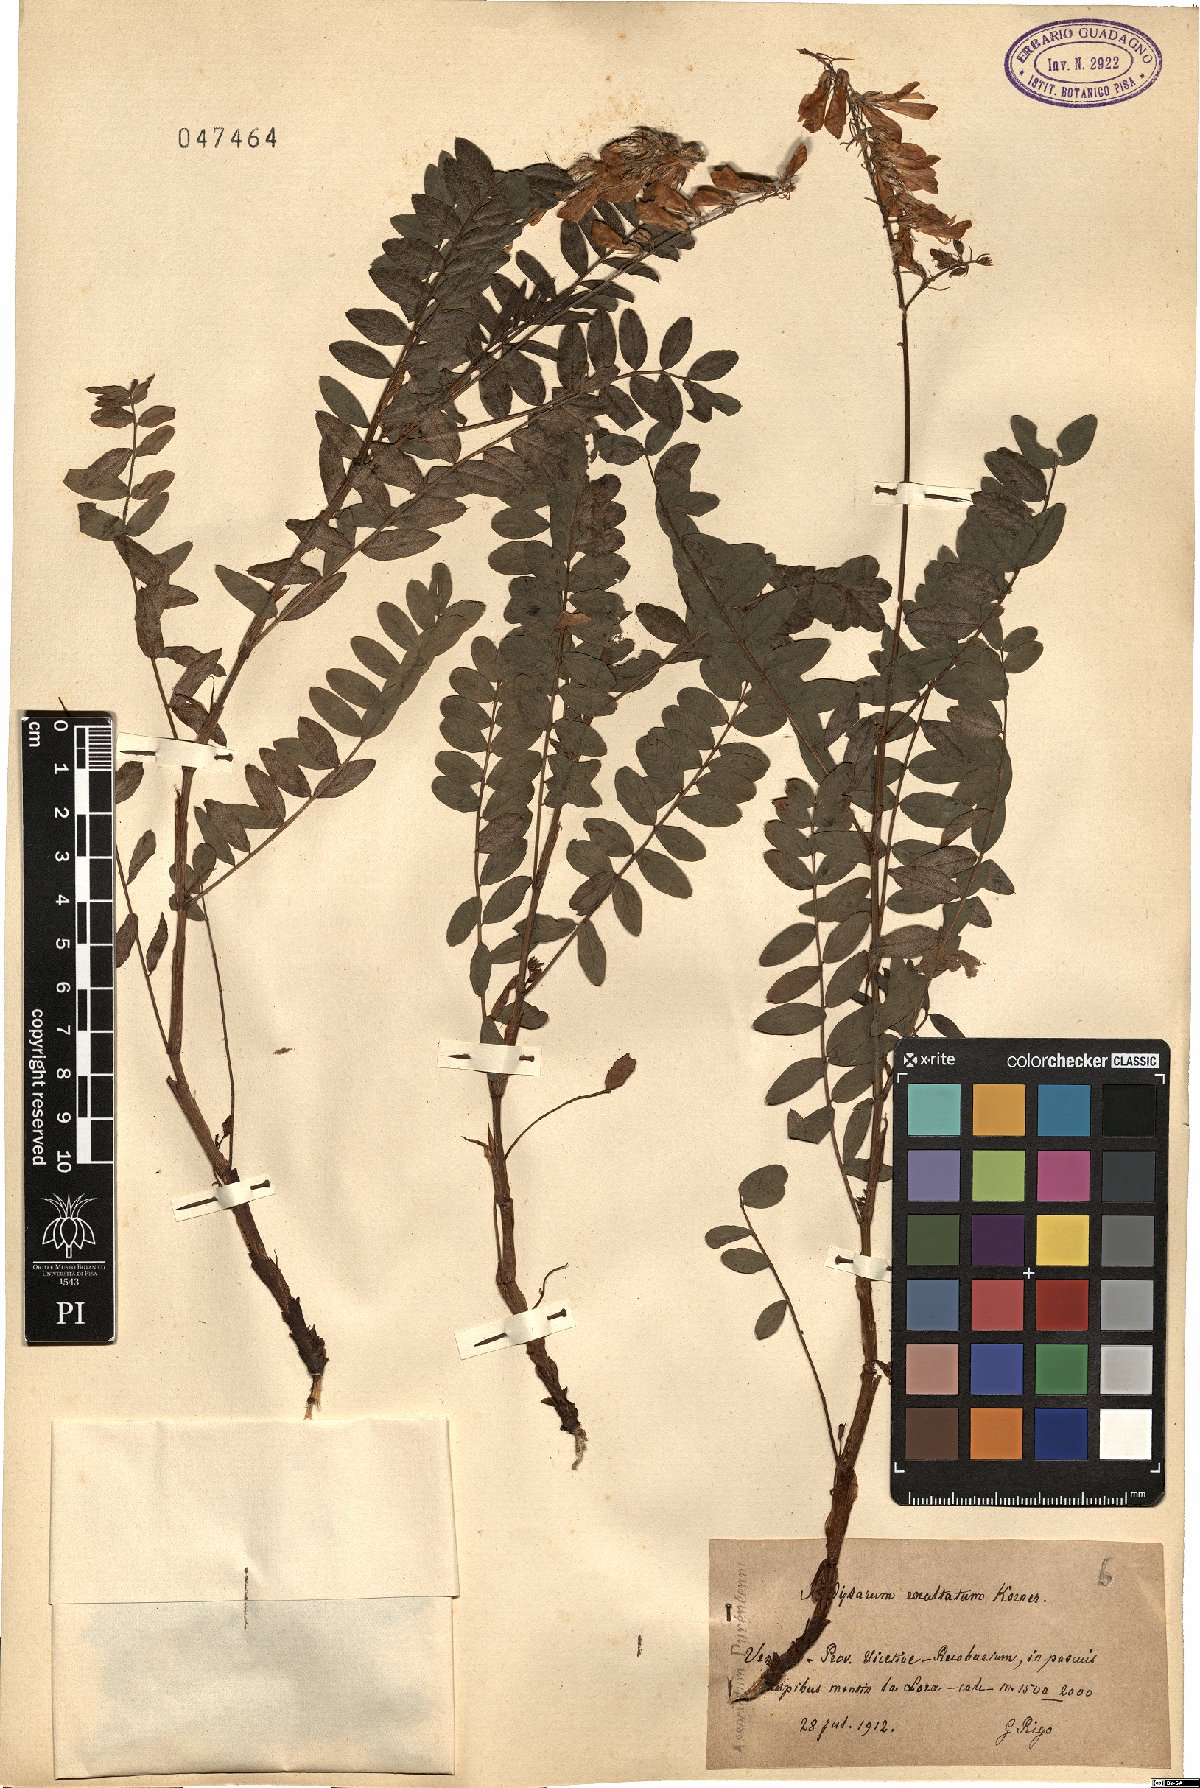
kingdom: Plantae
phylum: Tracheophyta
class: Magnoliopsida
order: Fabales
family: Fabaceae
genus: Hedysarum
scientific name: Hedysarum hedysaroides
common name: Alpine french-honeysuckle
